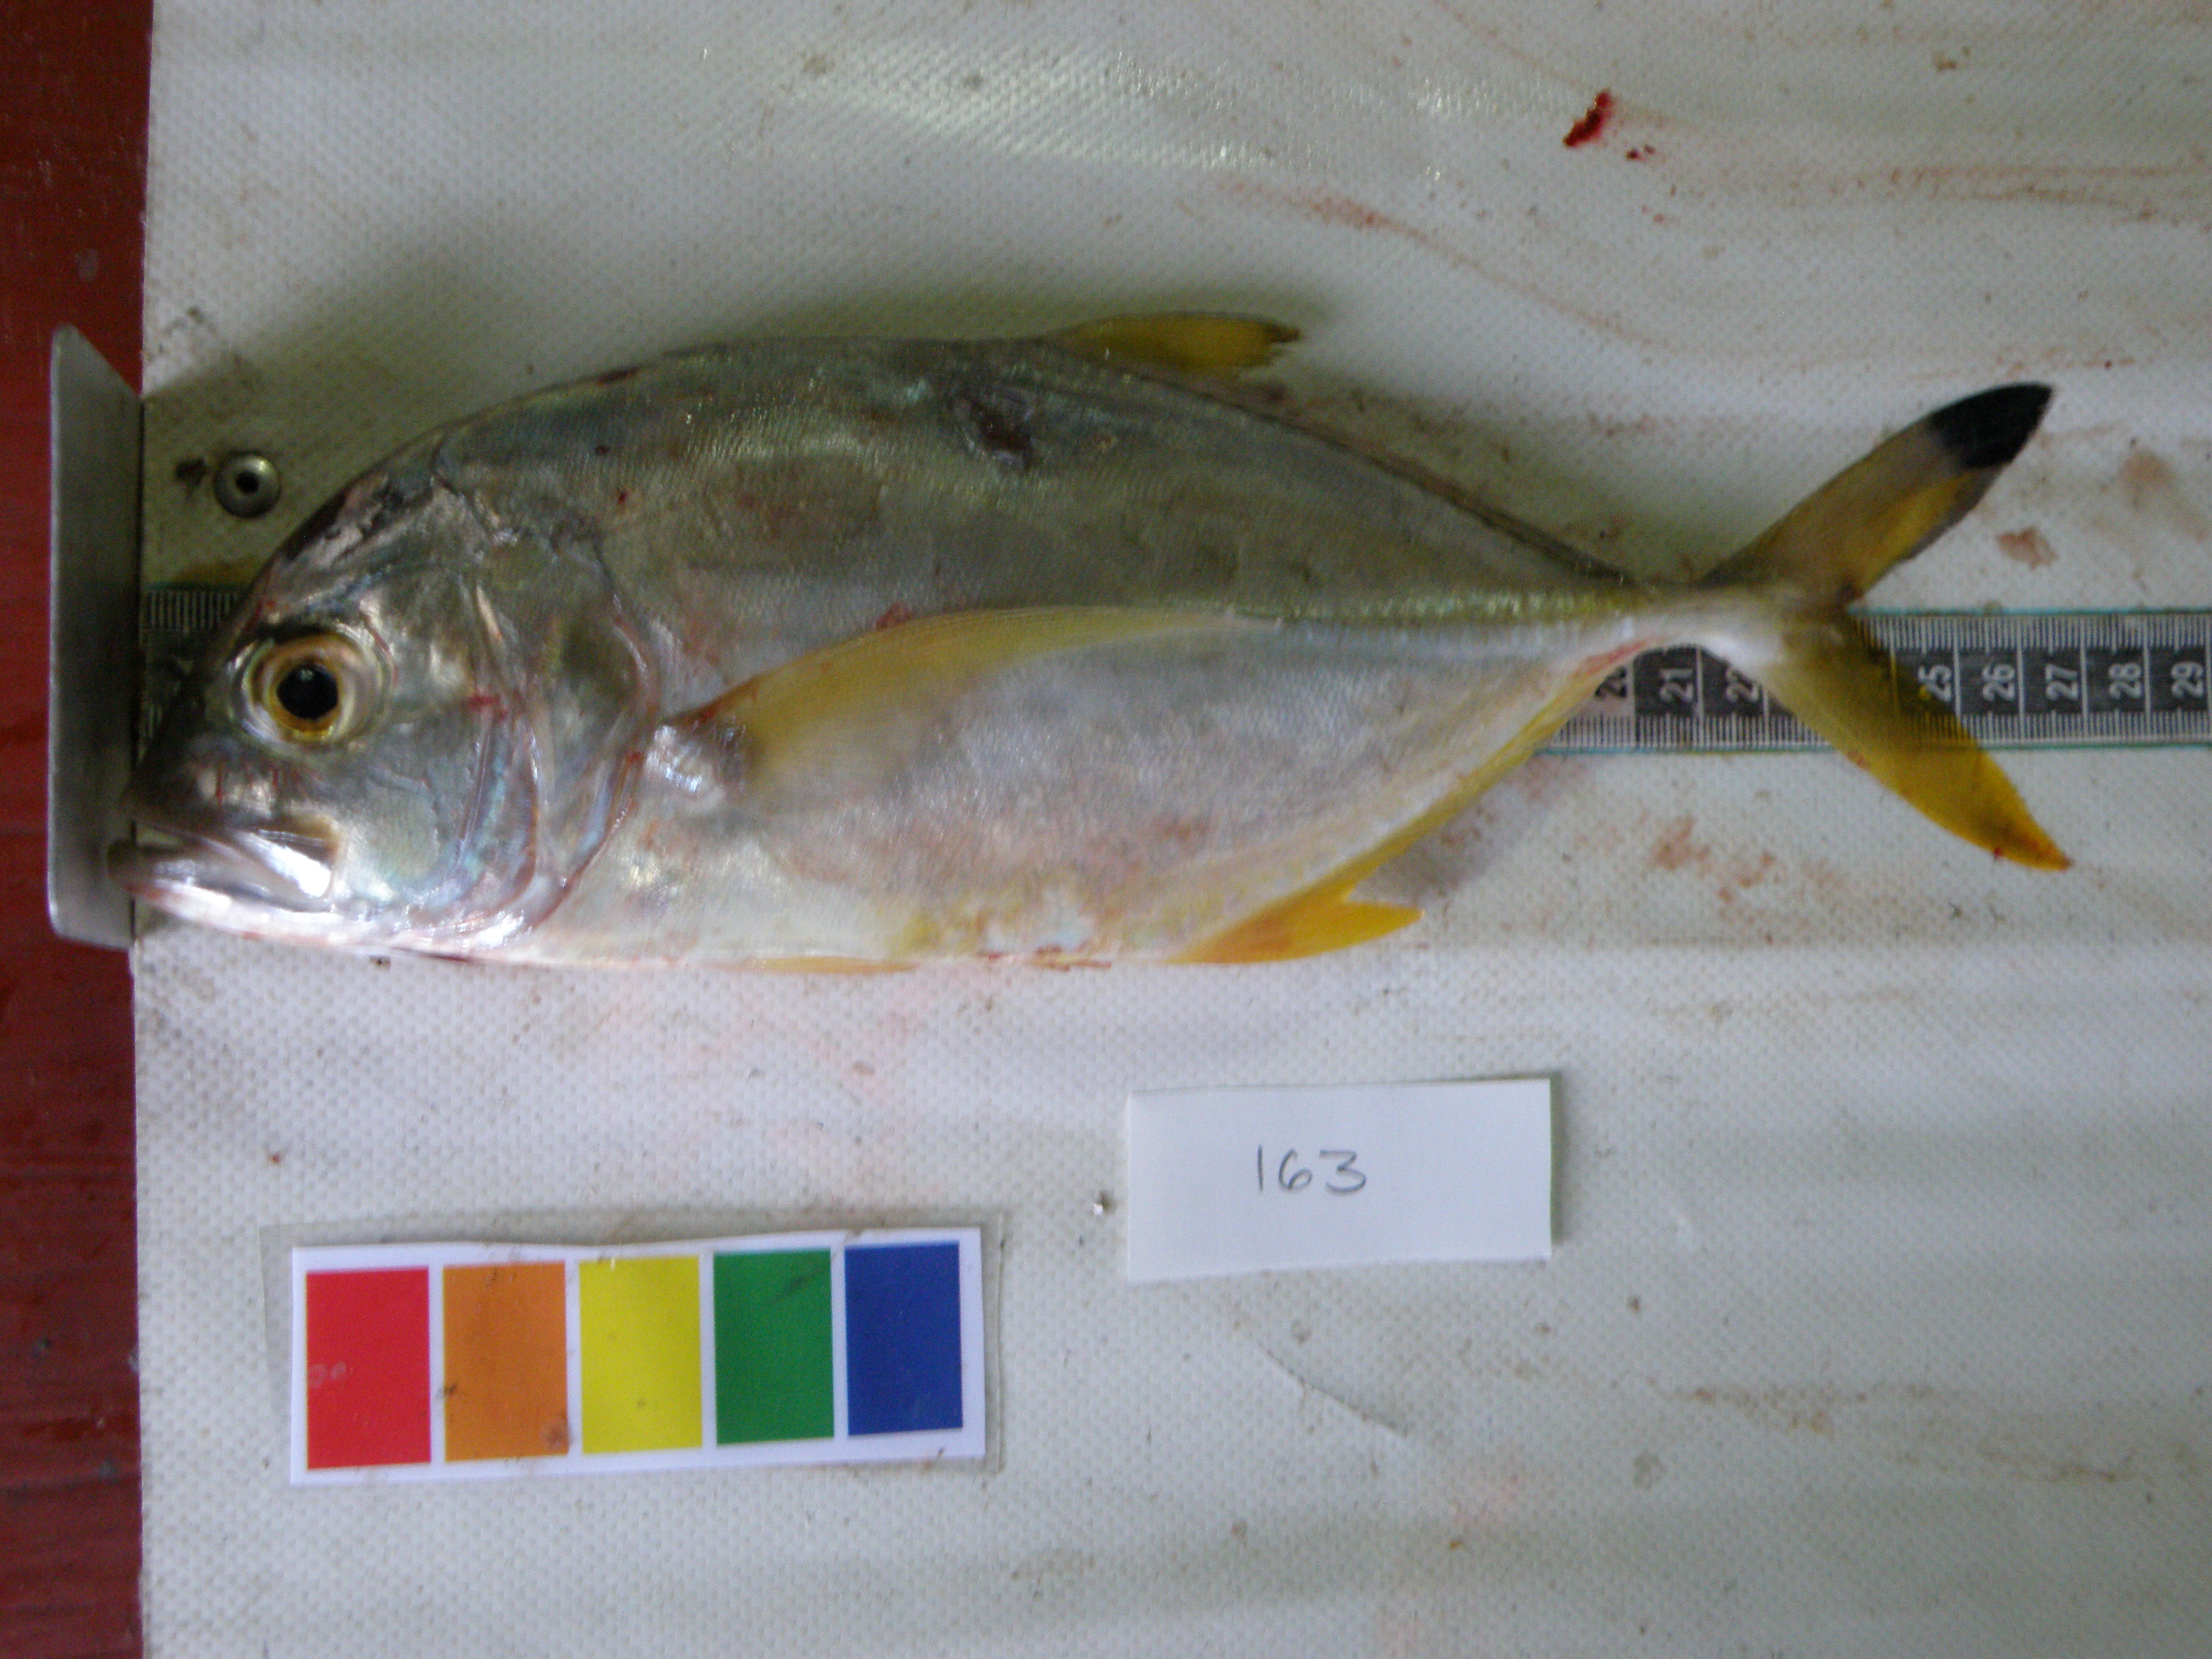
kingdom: Animalia
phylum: Chordata
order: Perciformes
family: Carangidae
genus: Caranx
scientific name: Caranx heberi
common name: Blacktip trevally
